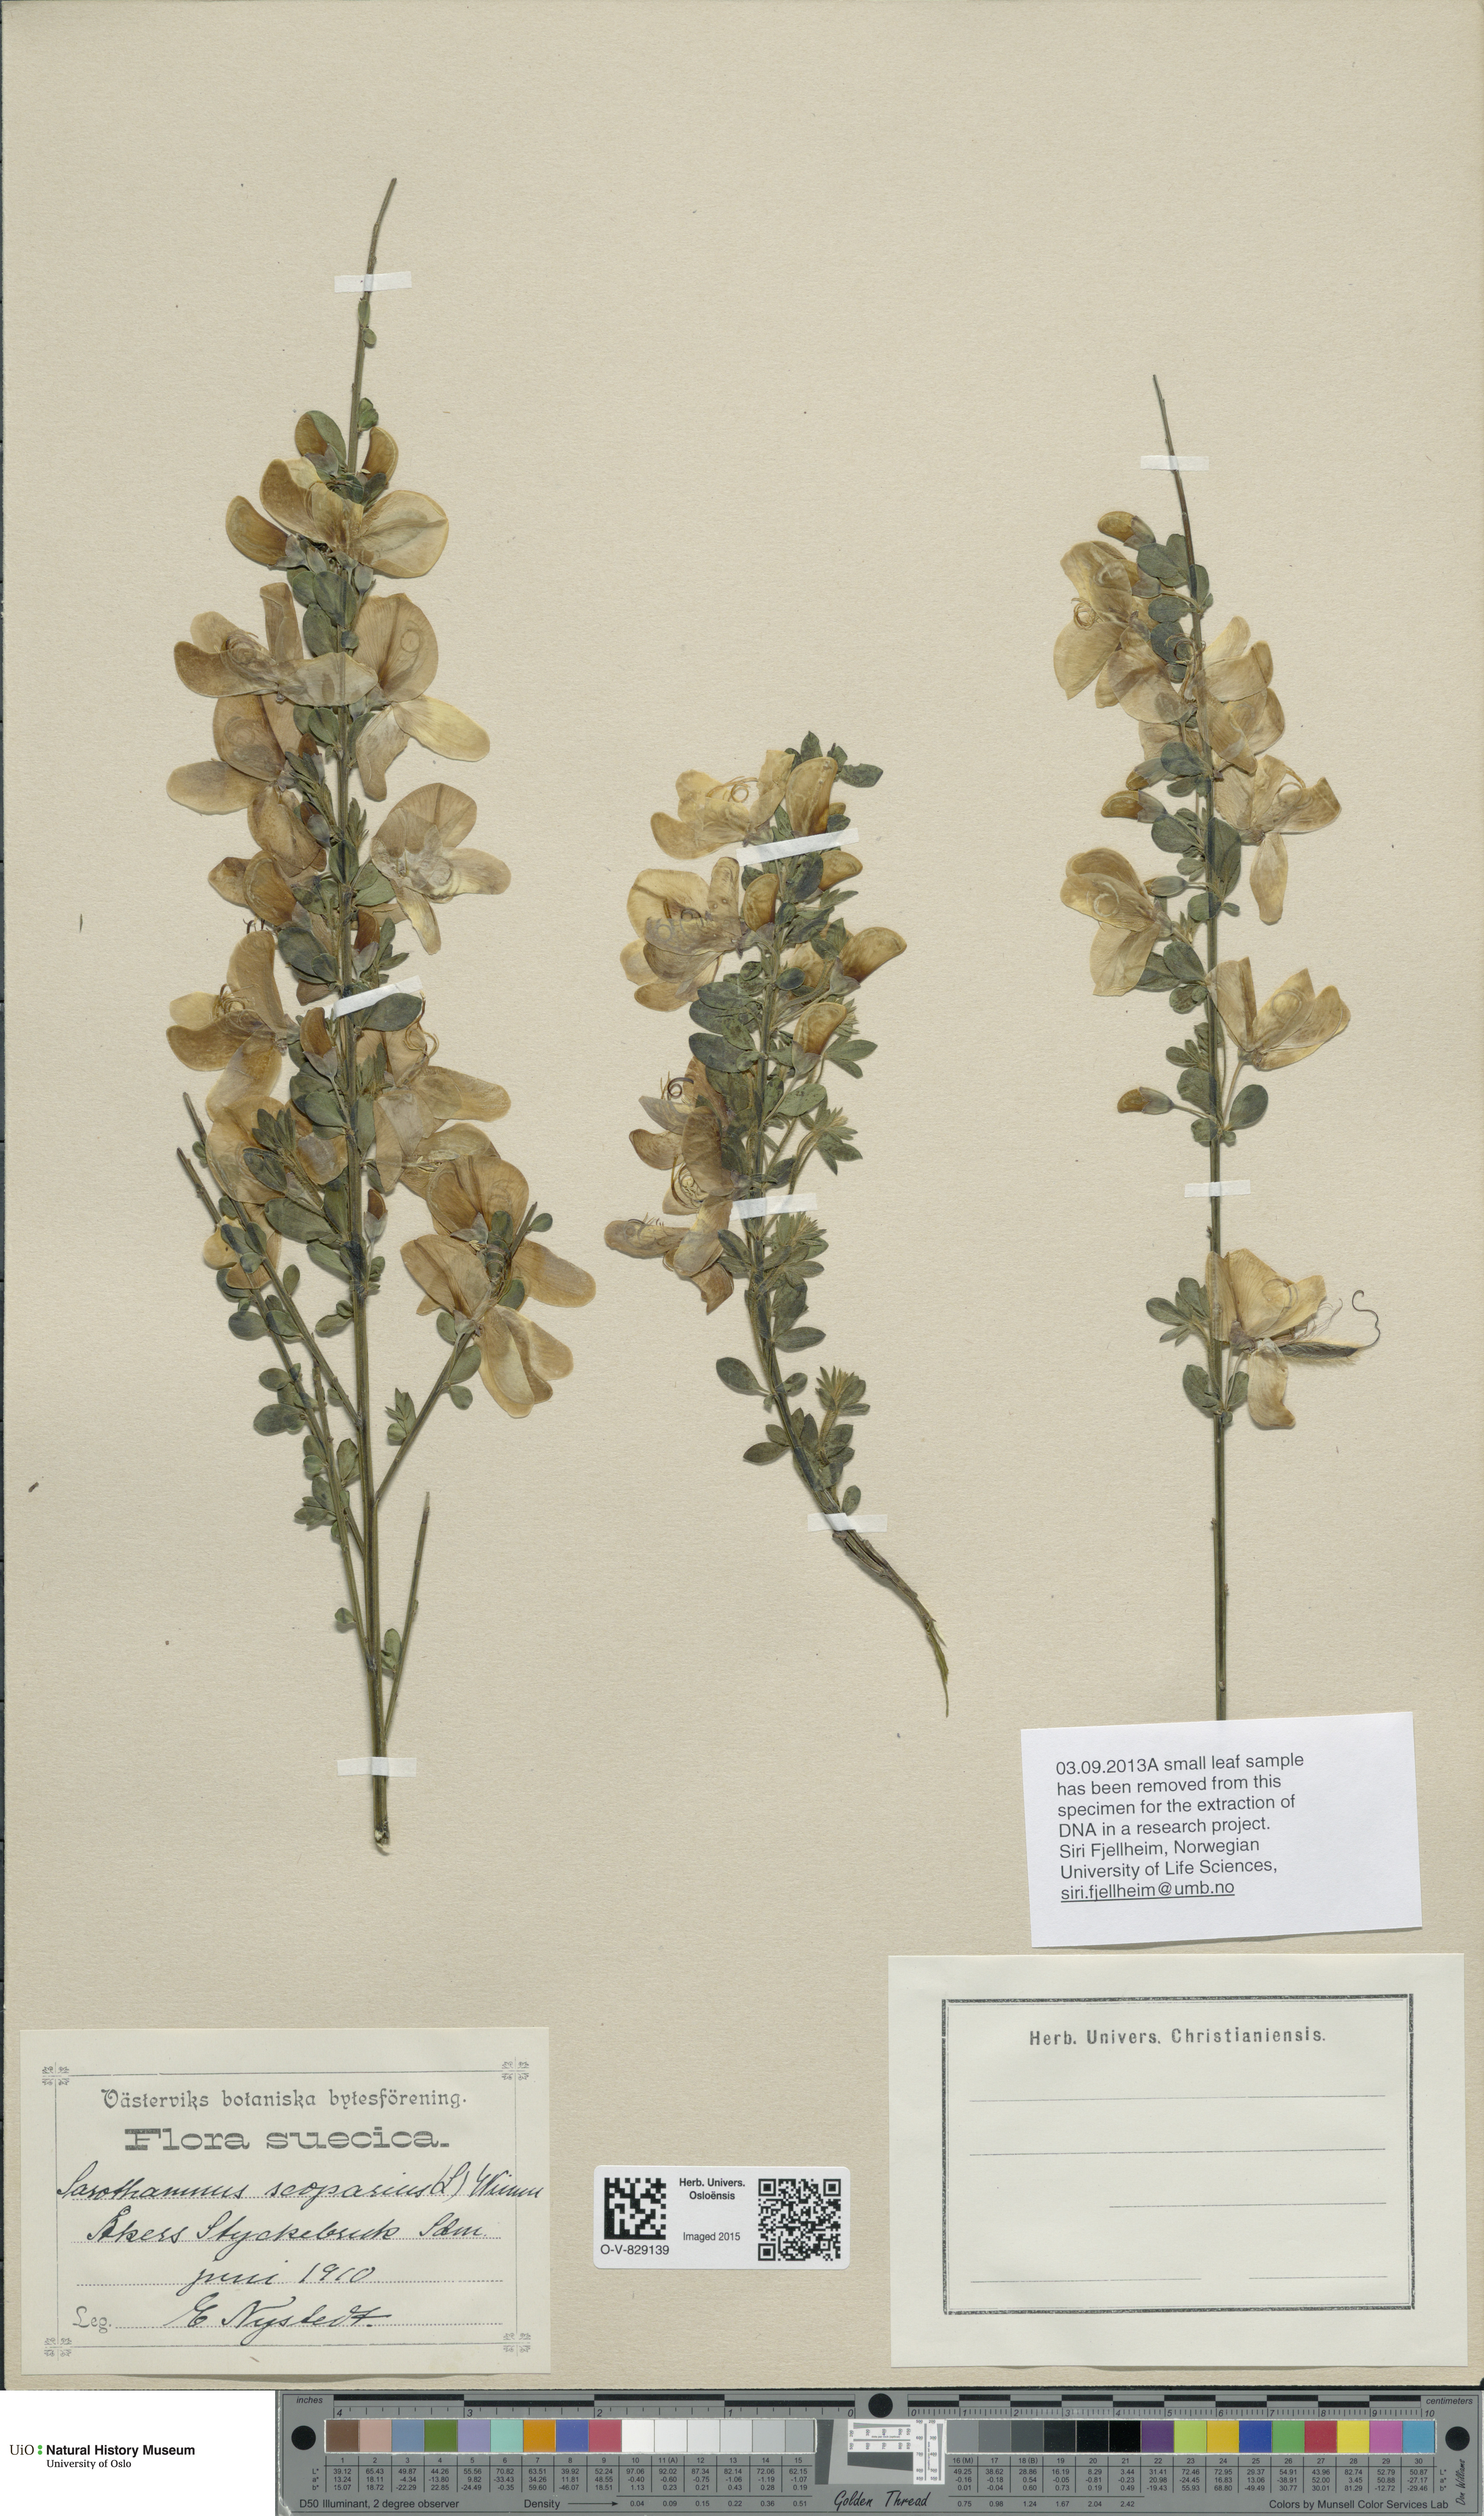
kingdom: Plantae
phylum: Tracheophyta
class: Magnoliopsida
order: Fabales
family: Fabaceae
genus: Cytisus
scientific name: Cytisus scoparius
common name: Scotch broom
